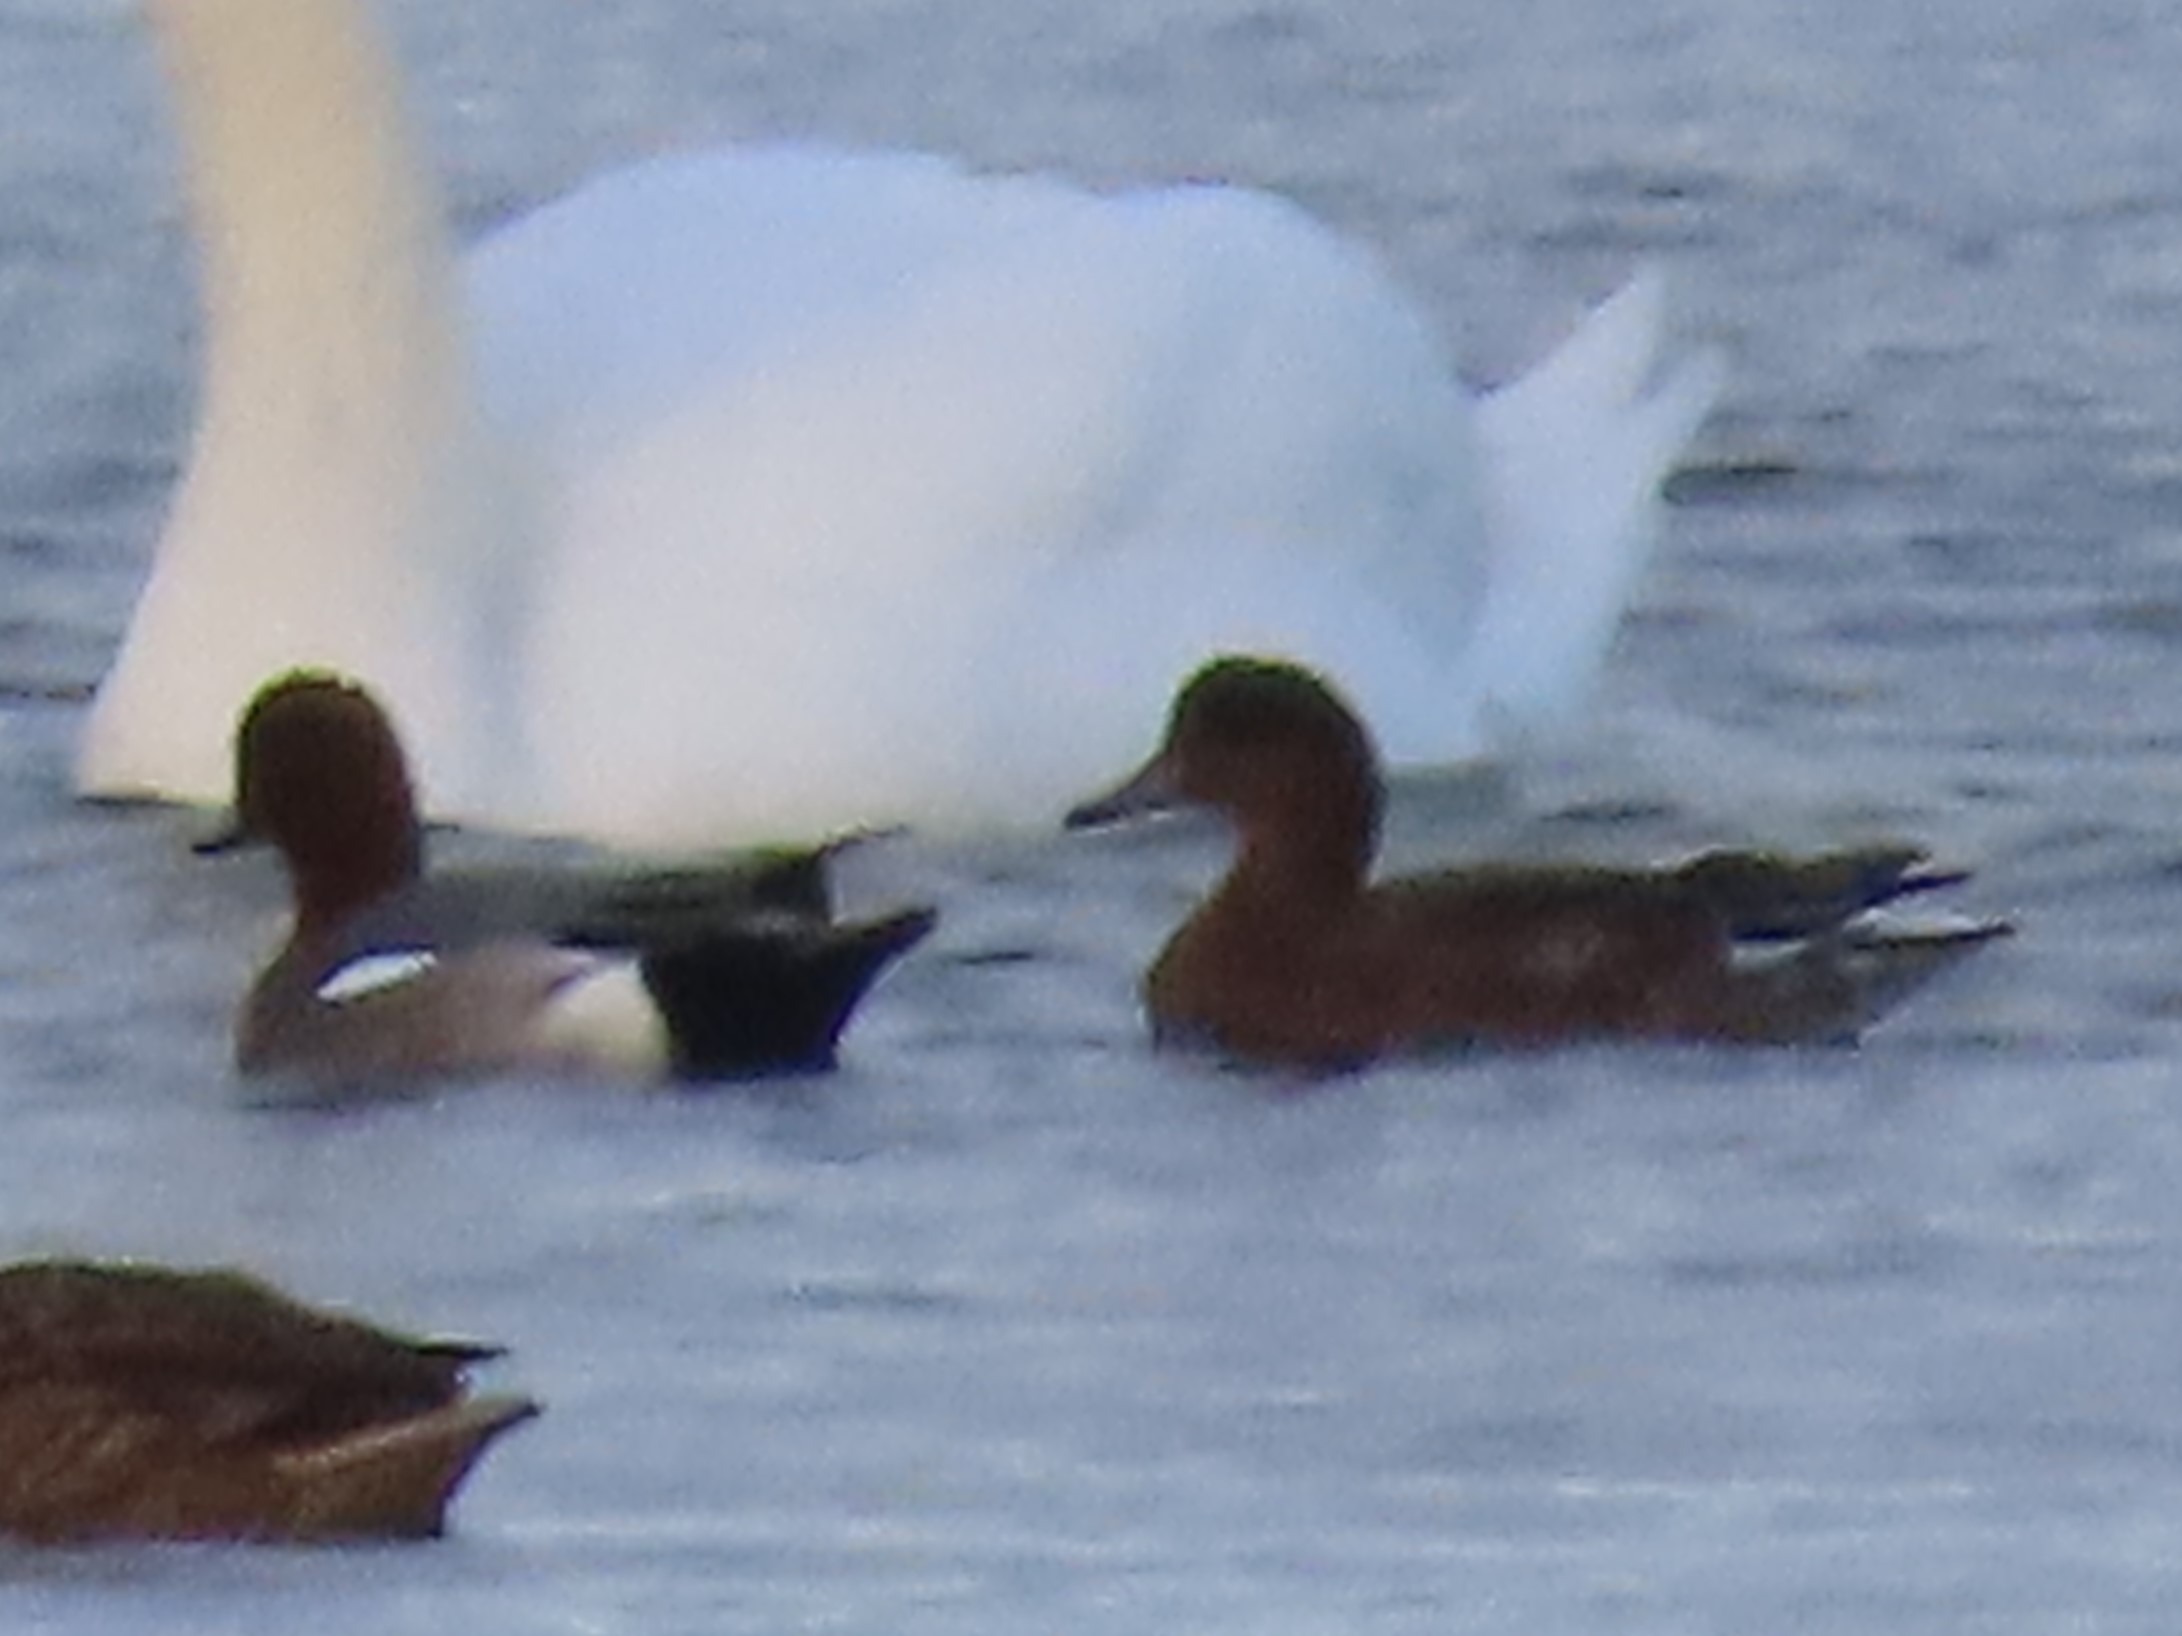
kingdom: Animalia
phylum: Chordata
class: Aves
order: Anseriformes
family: Anatidae
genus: Mareca
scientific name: Mareca penelope
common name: Pibeand
